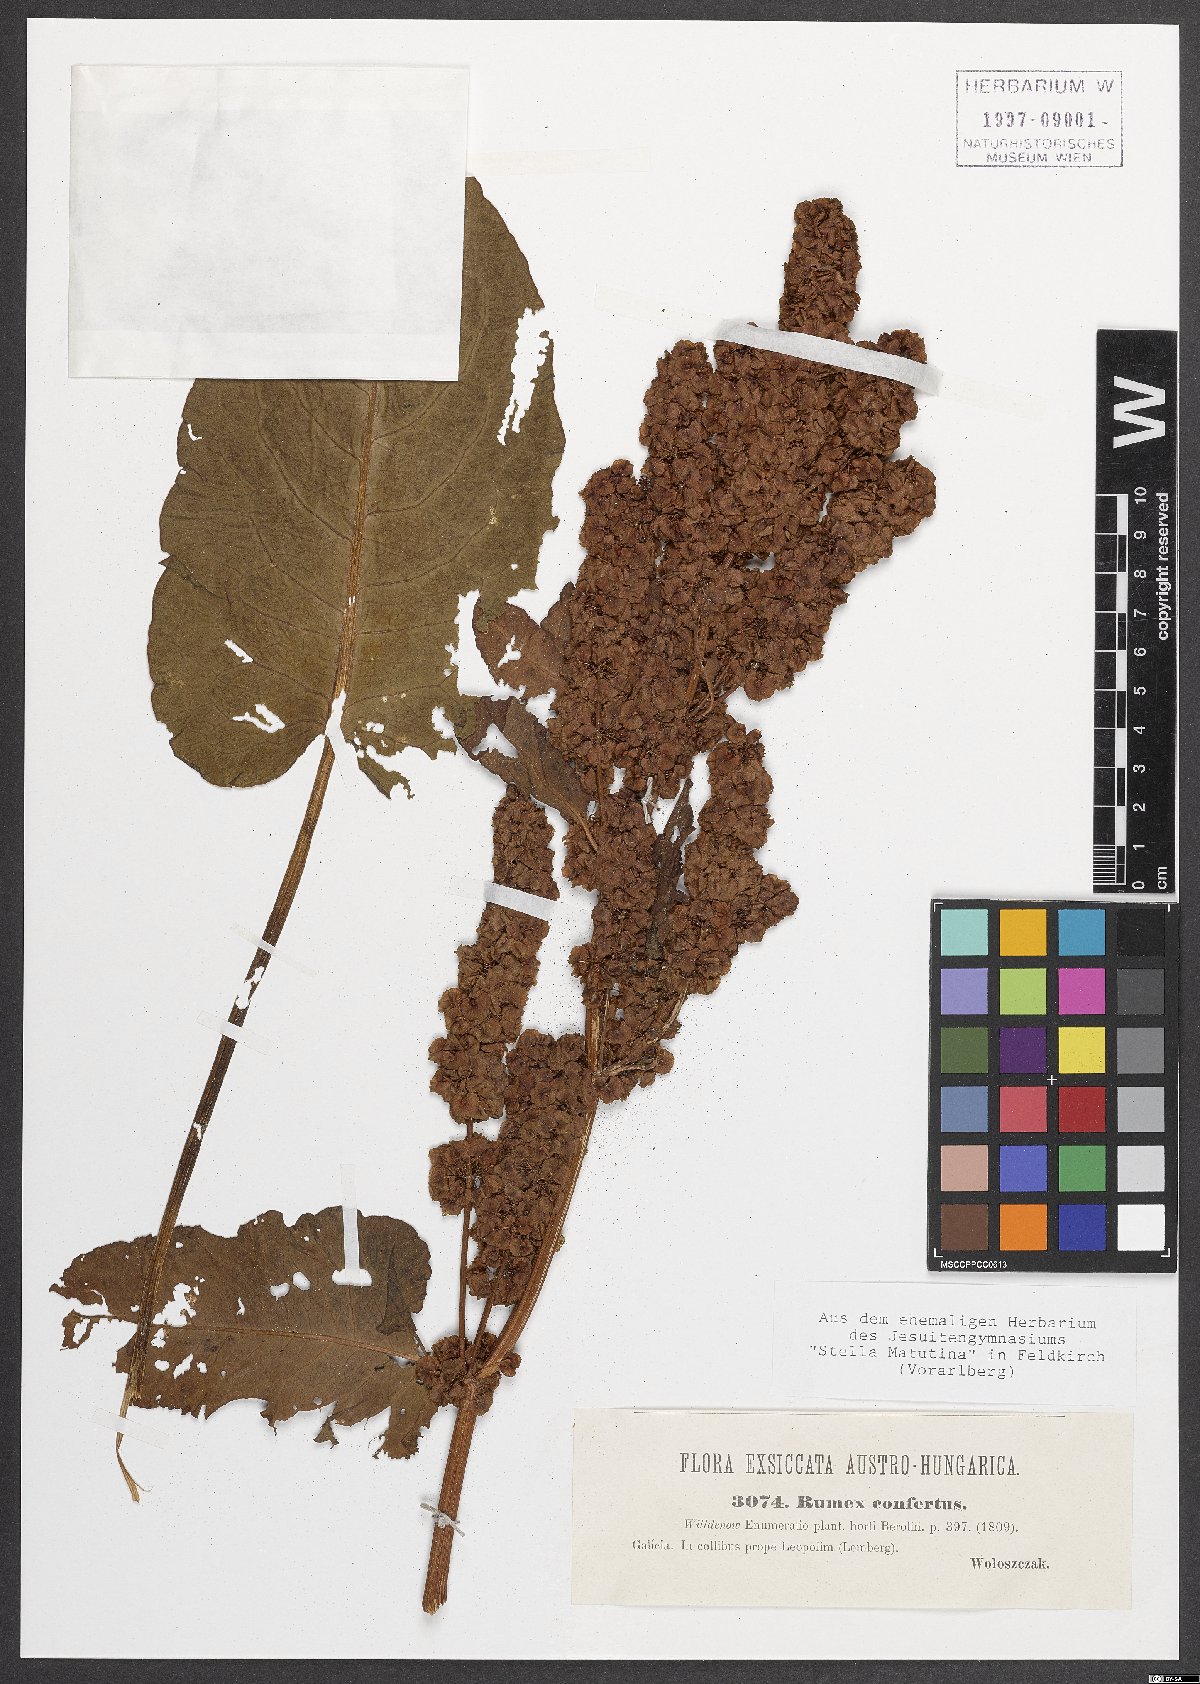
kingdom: Plantae
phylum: Tracheophyta
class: Magnoliopsida
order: Caryophyllales
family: Polygonaceae
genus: Rumex
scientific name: Rumex confertus
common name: Russian dock
